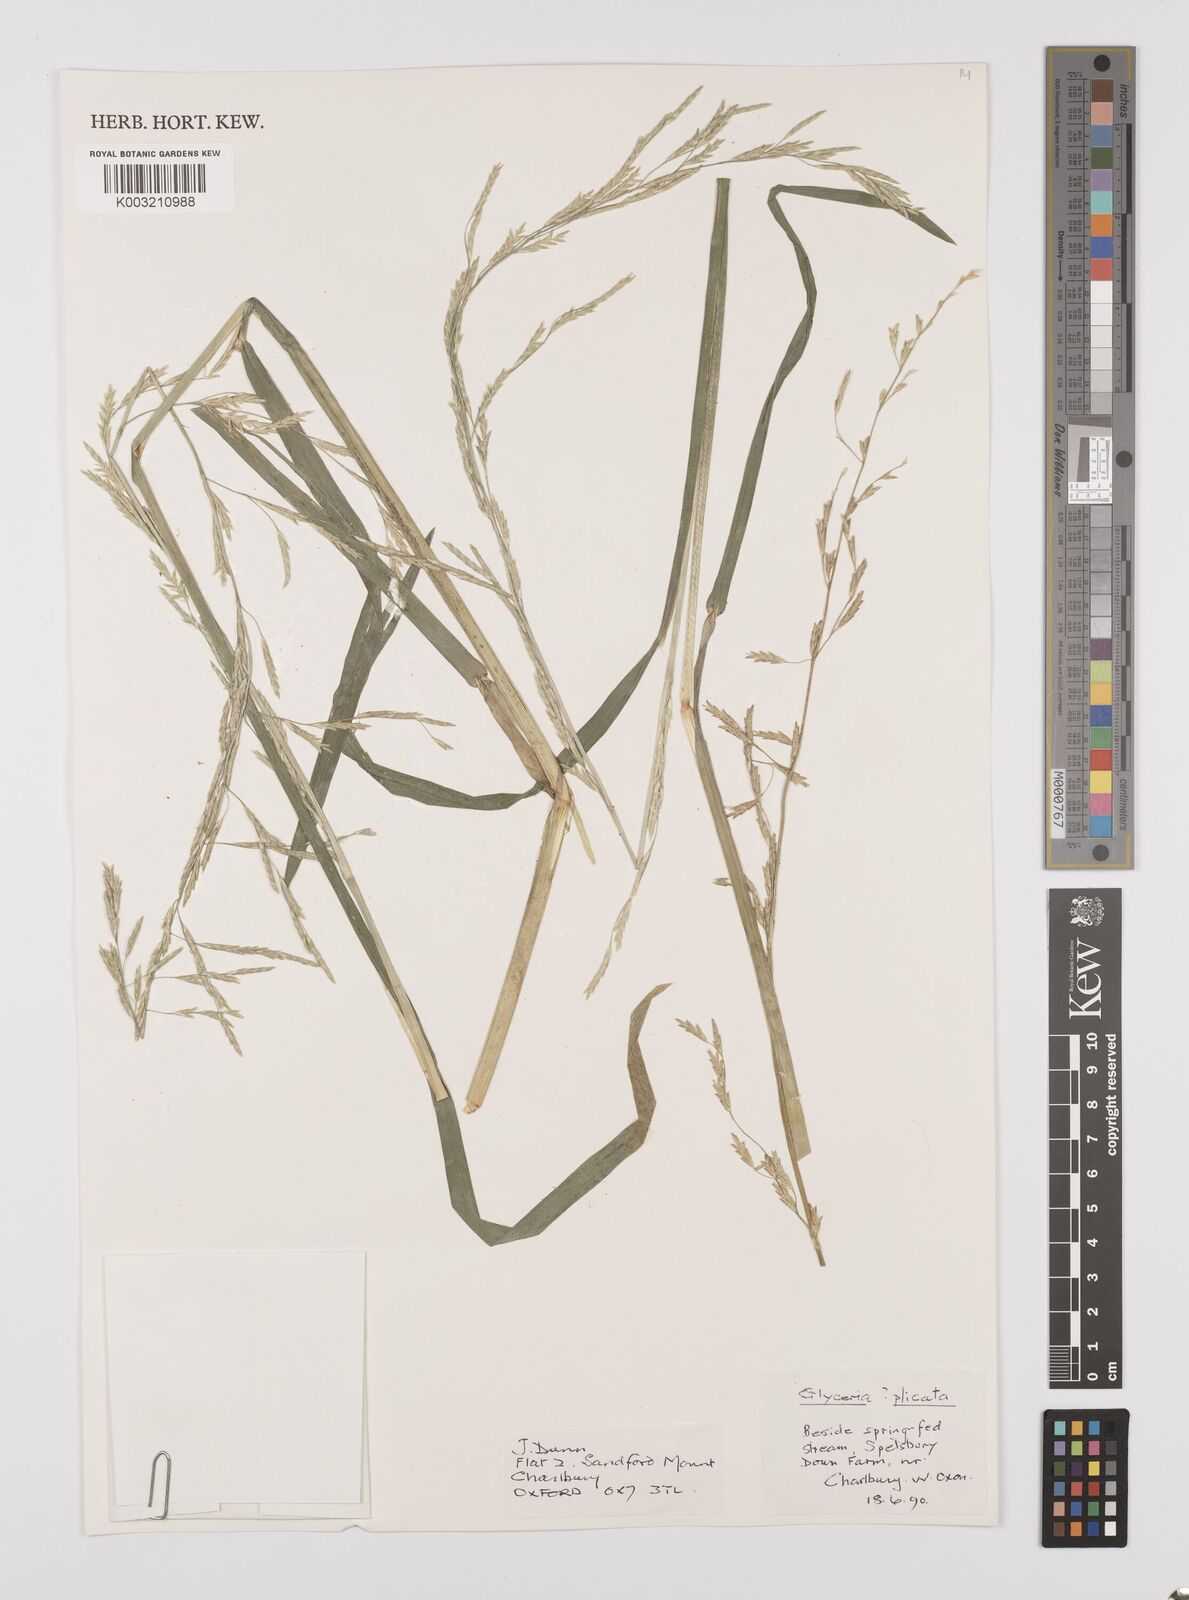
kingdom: Plantae
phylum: Tracheophyta
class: Liliopsida
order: Poales
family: Poaceae
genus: Glyceria
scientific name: Glyceria notata
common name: Plicate sweet-grass
